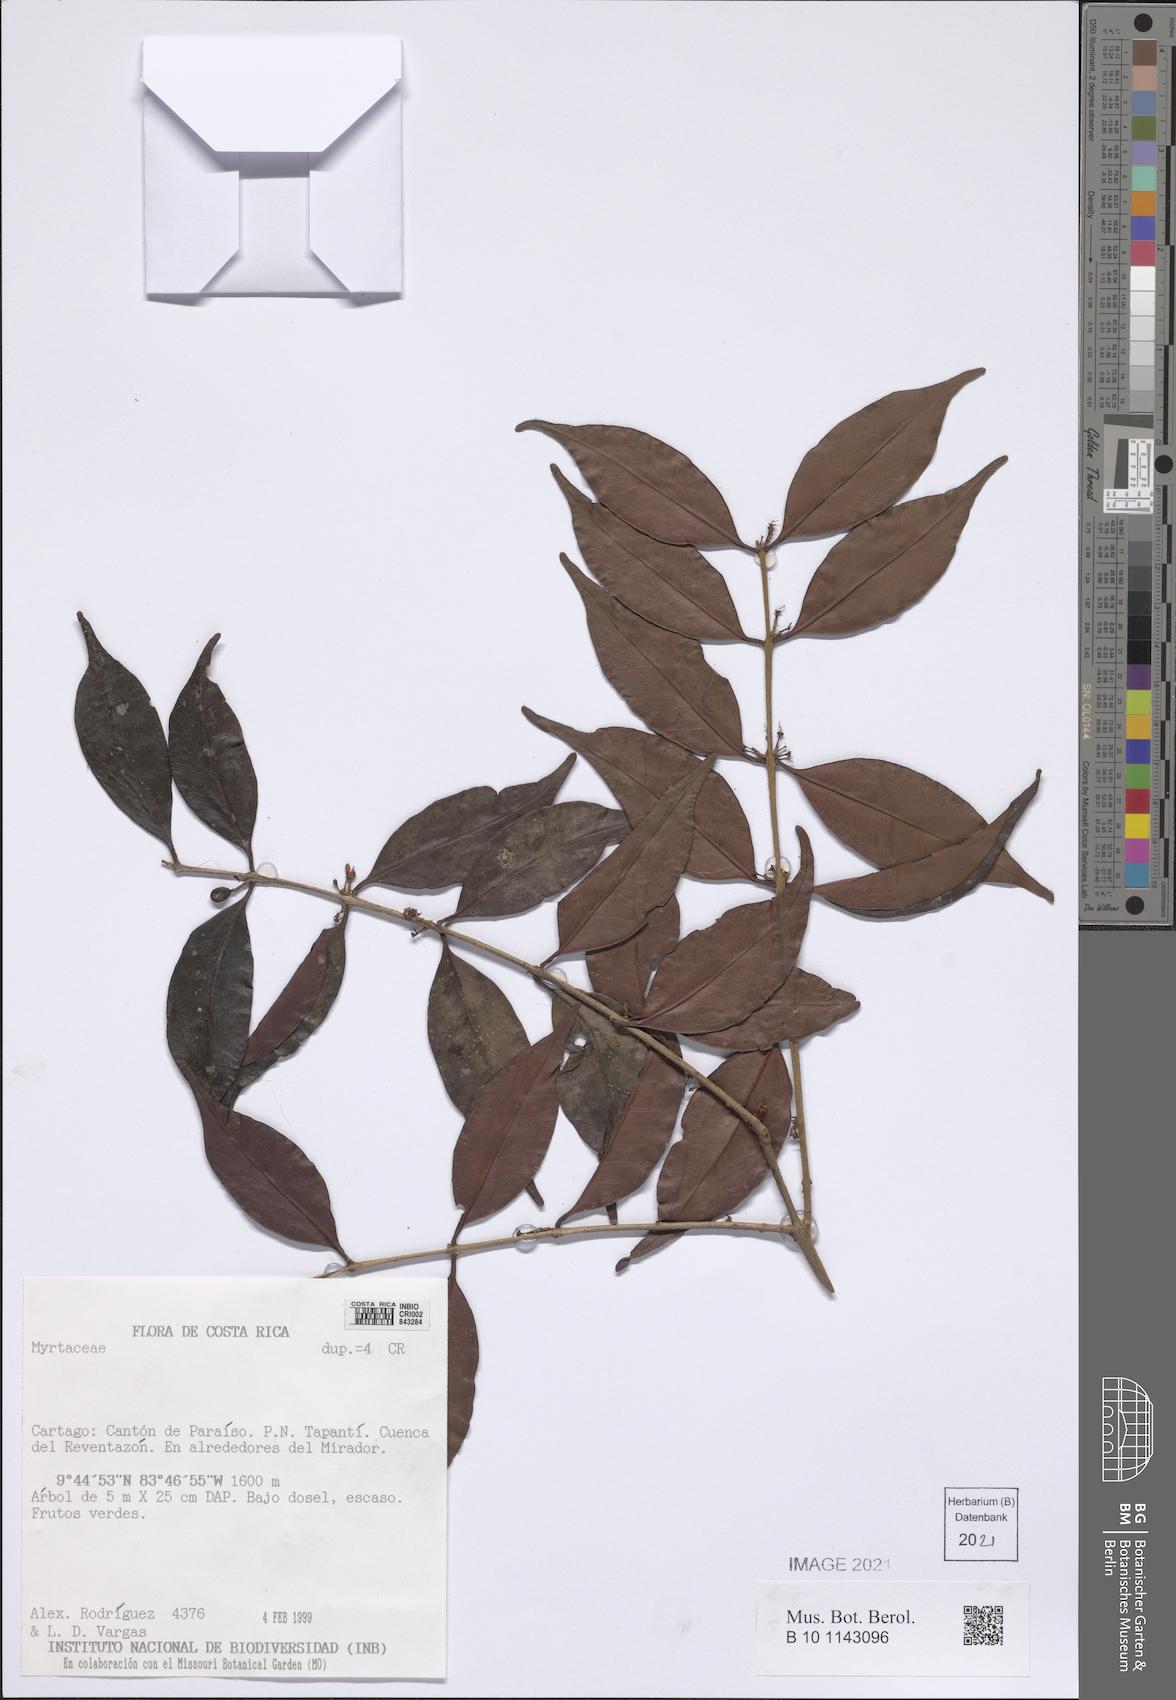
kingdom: Plantae
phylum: Tracheophyta
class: Magnoliopsida
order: Myrtales
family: Myrtaceae
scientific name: Myrtaceae
